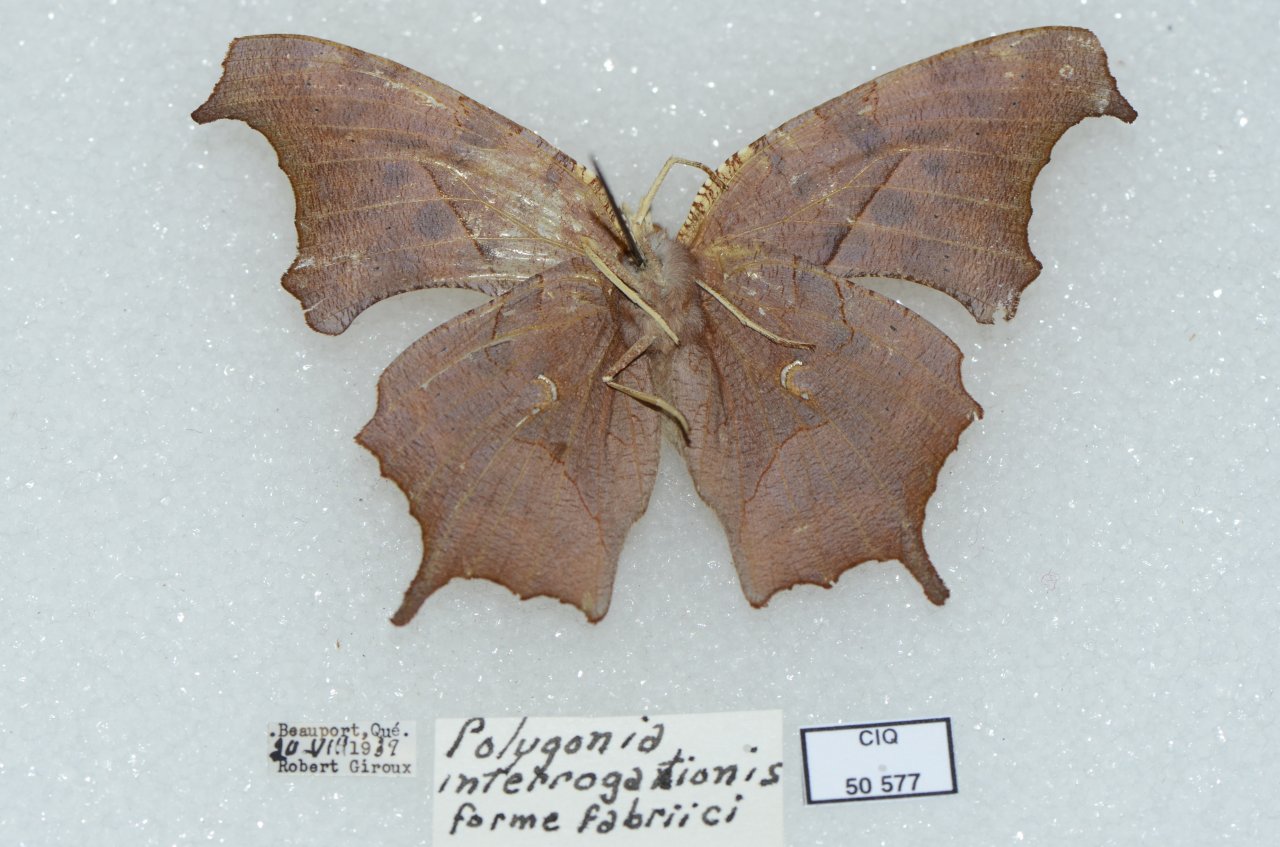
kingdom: Animalia
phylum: Arthropoda
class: Insecta
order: Lepidoptera
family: Nymphalidae
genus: Polygonia
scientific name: Polygonia interrogationis
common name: Question Mark
